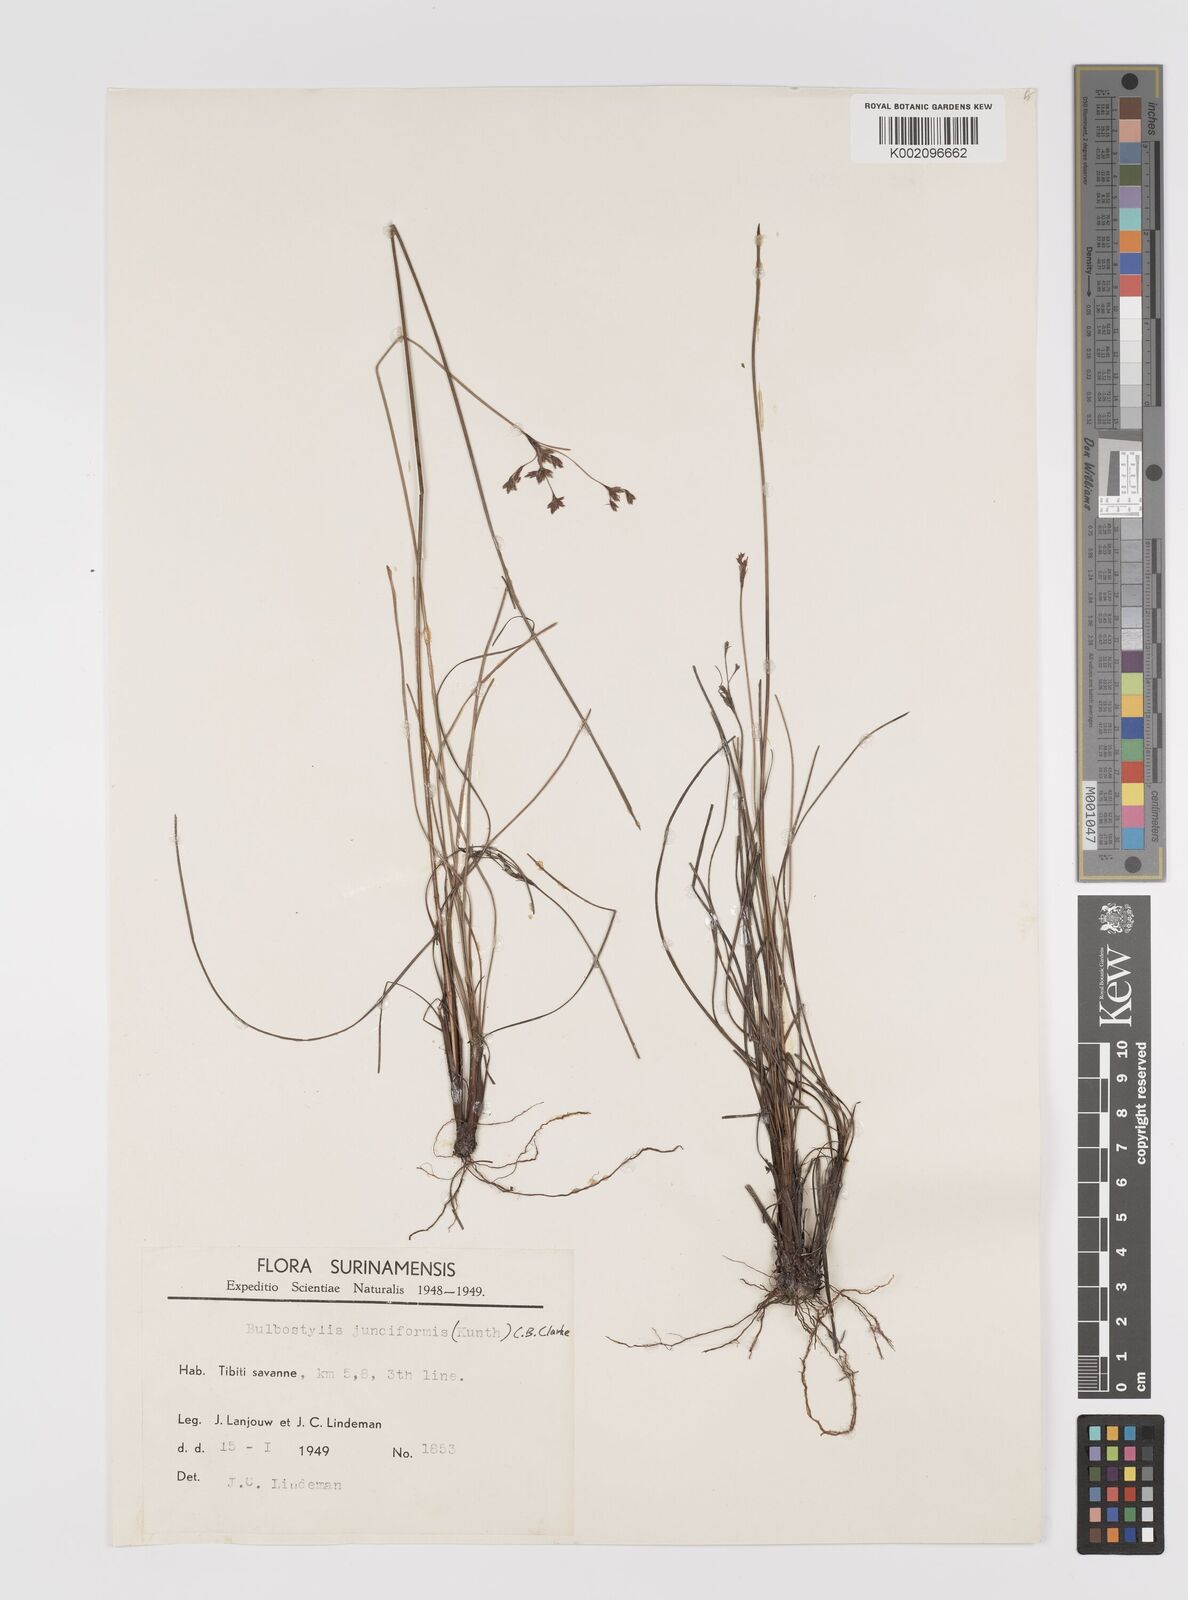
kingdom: Plantae
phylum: Tracheophyta
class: Liliopsida
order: Poales
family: Cyperaceae
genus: Bulbostylis
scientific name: Bulbostylis junciformis
